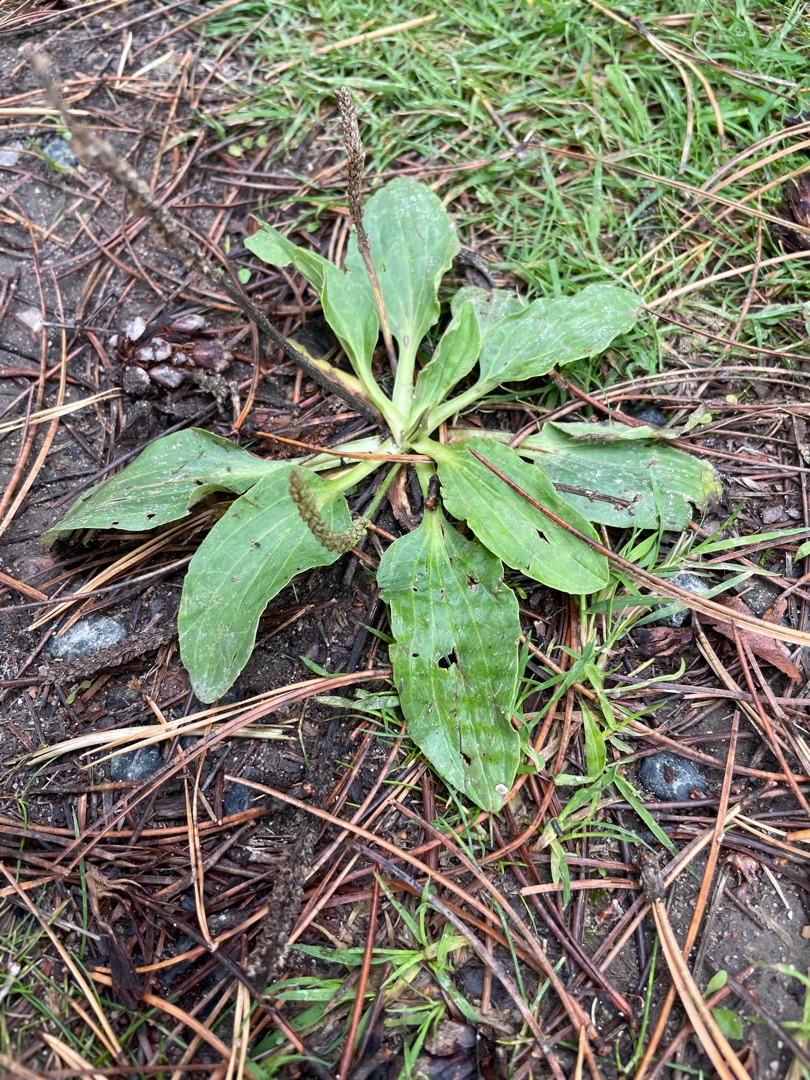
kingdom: Plantae
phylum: Tracheophyta
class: Magnoliopsida
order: Lamiales
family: Plantaginaceae
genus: Plantago
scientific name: Plantago major
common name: Glat vejbred
